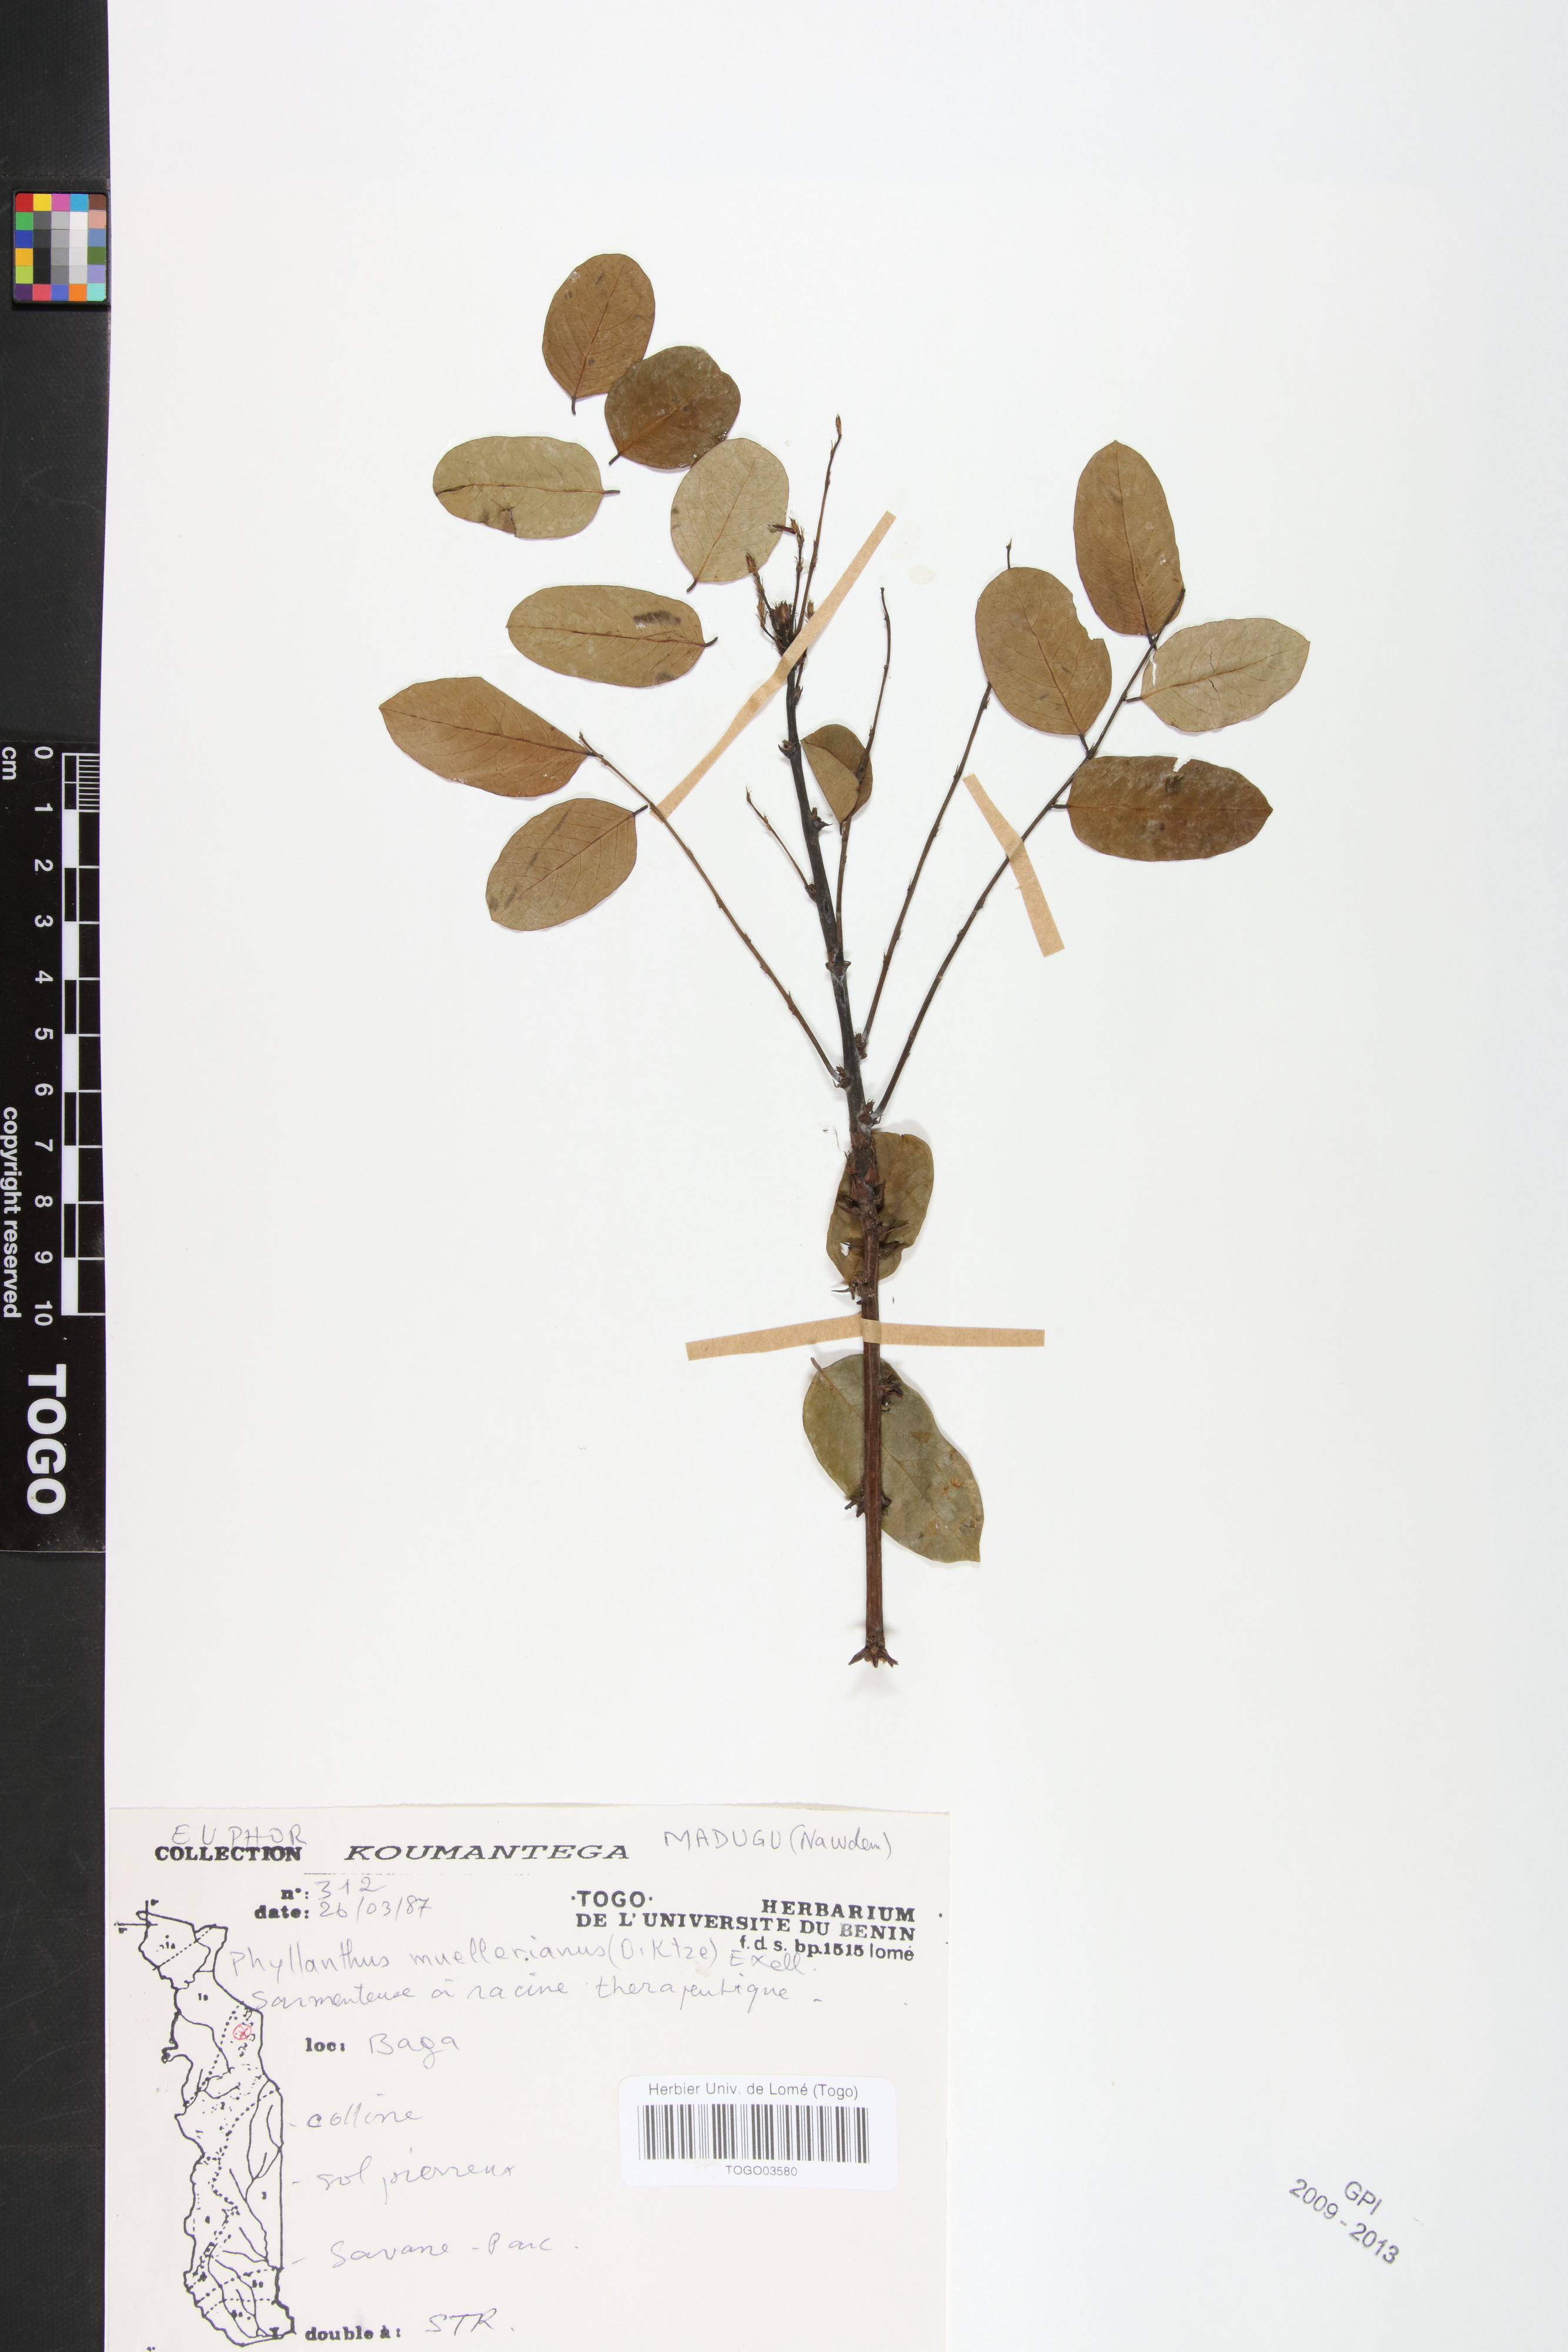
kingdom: Plantae
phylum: Tracheophyta
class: Magnoliopsida
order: Malpighiales
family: Phyllanthaceae
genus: Phyllanthus
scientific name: Phyllanthus muellerianus
